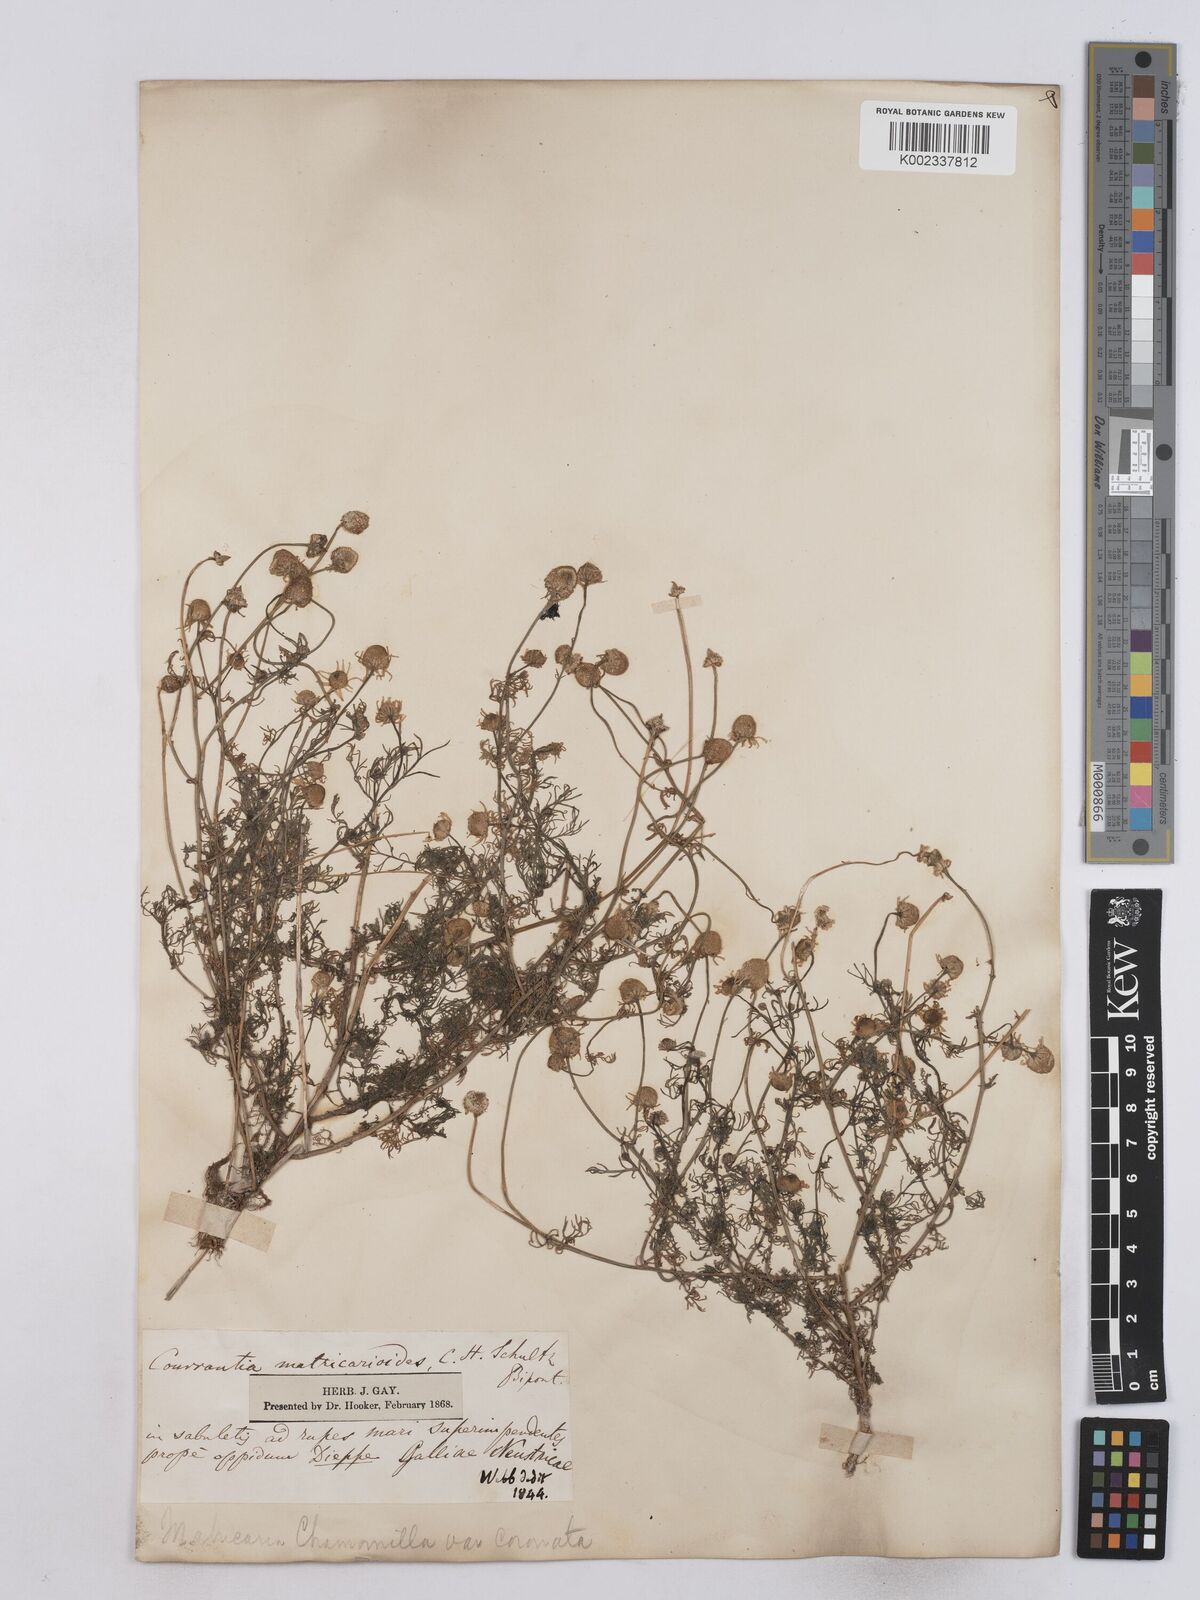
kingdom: Plantae
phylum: Tracheophyta
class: Magnoliopsida
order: Asterales
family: Asteraceae
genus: Matricaria
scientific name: Matricaria chamomilla
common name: Scented mayweed
